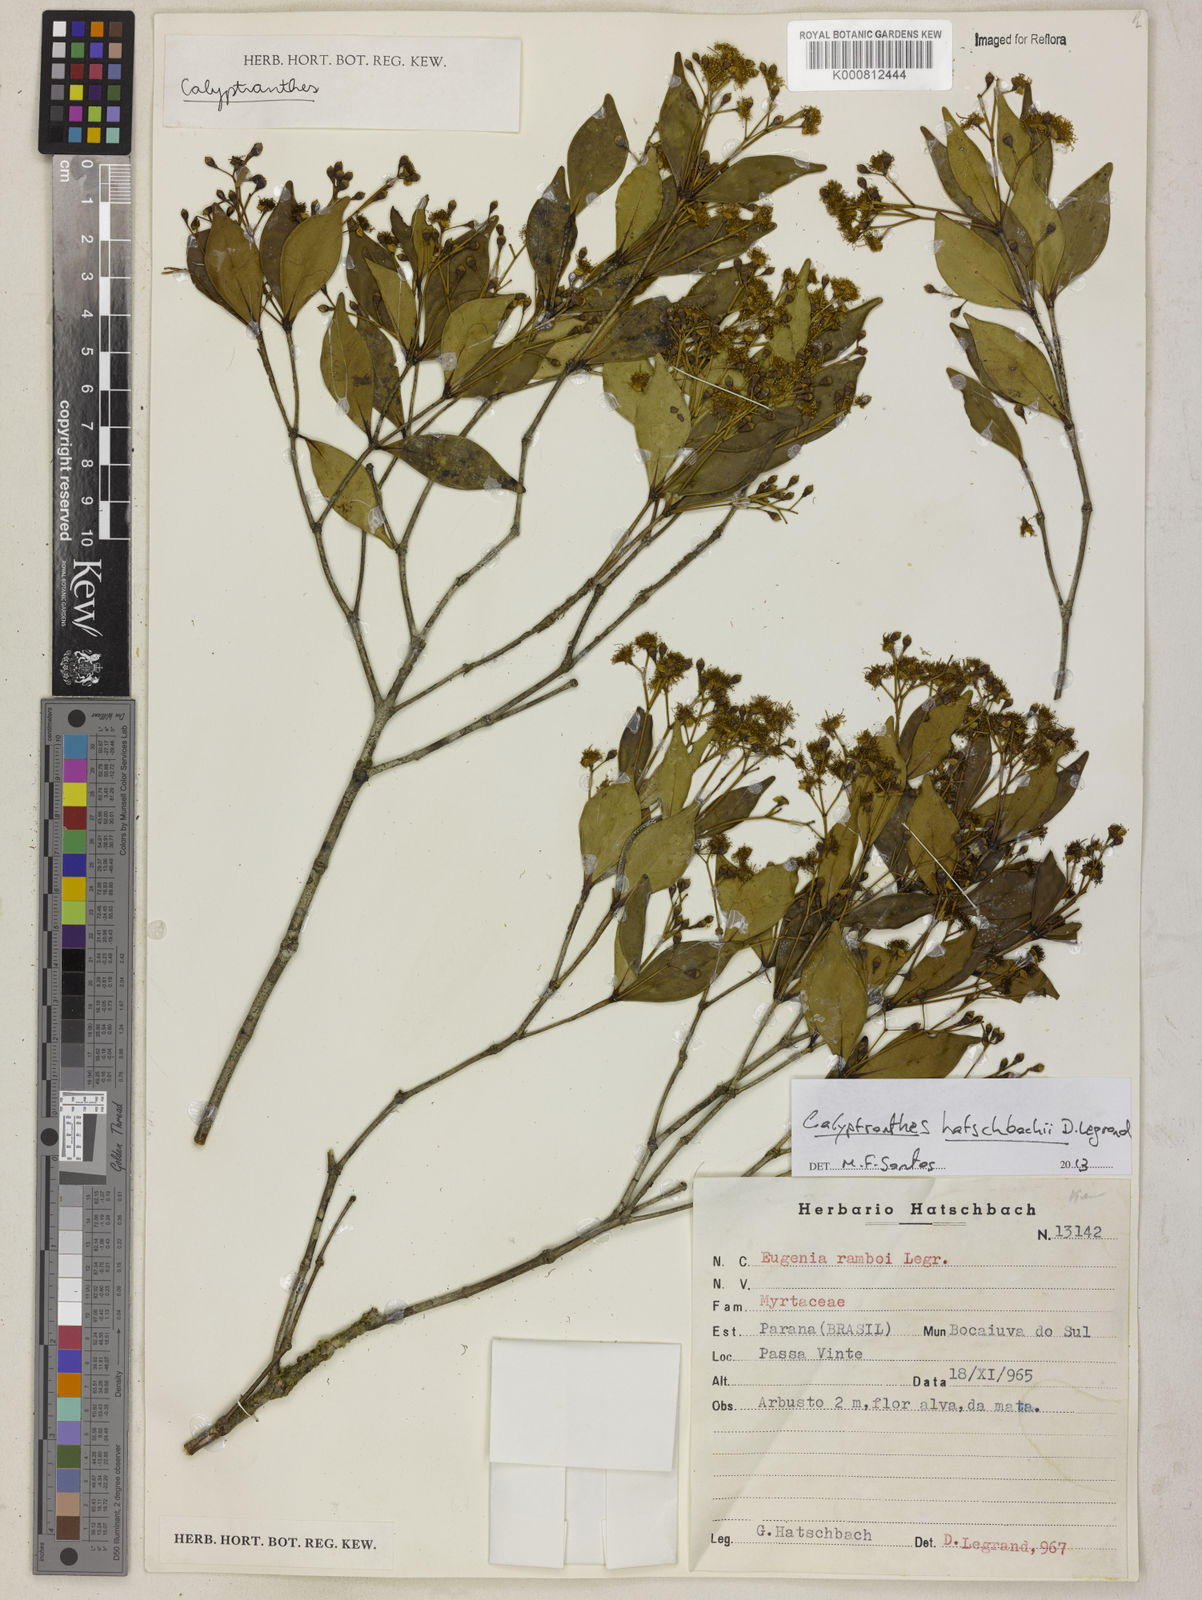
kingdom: Plantae
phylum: Tracheophyta
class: Magnoliopsida
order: Myrtales
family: Myrtaceae
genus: Calyptranthes
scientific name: Calyptranthes hatschbachii
